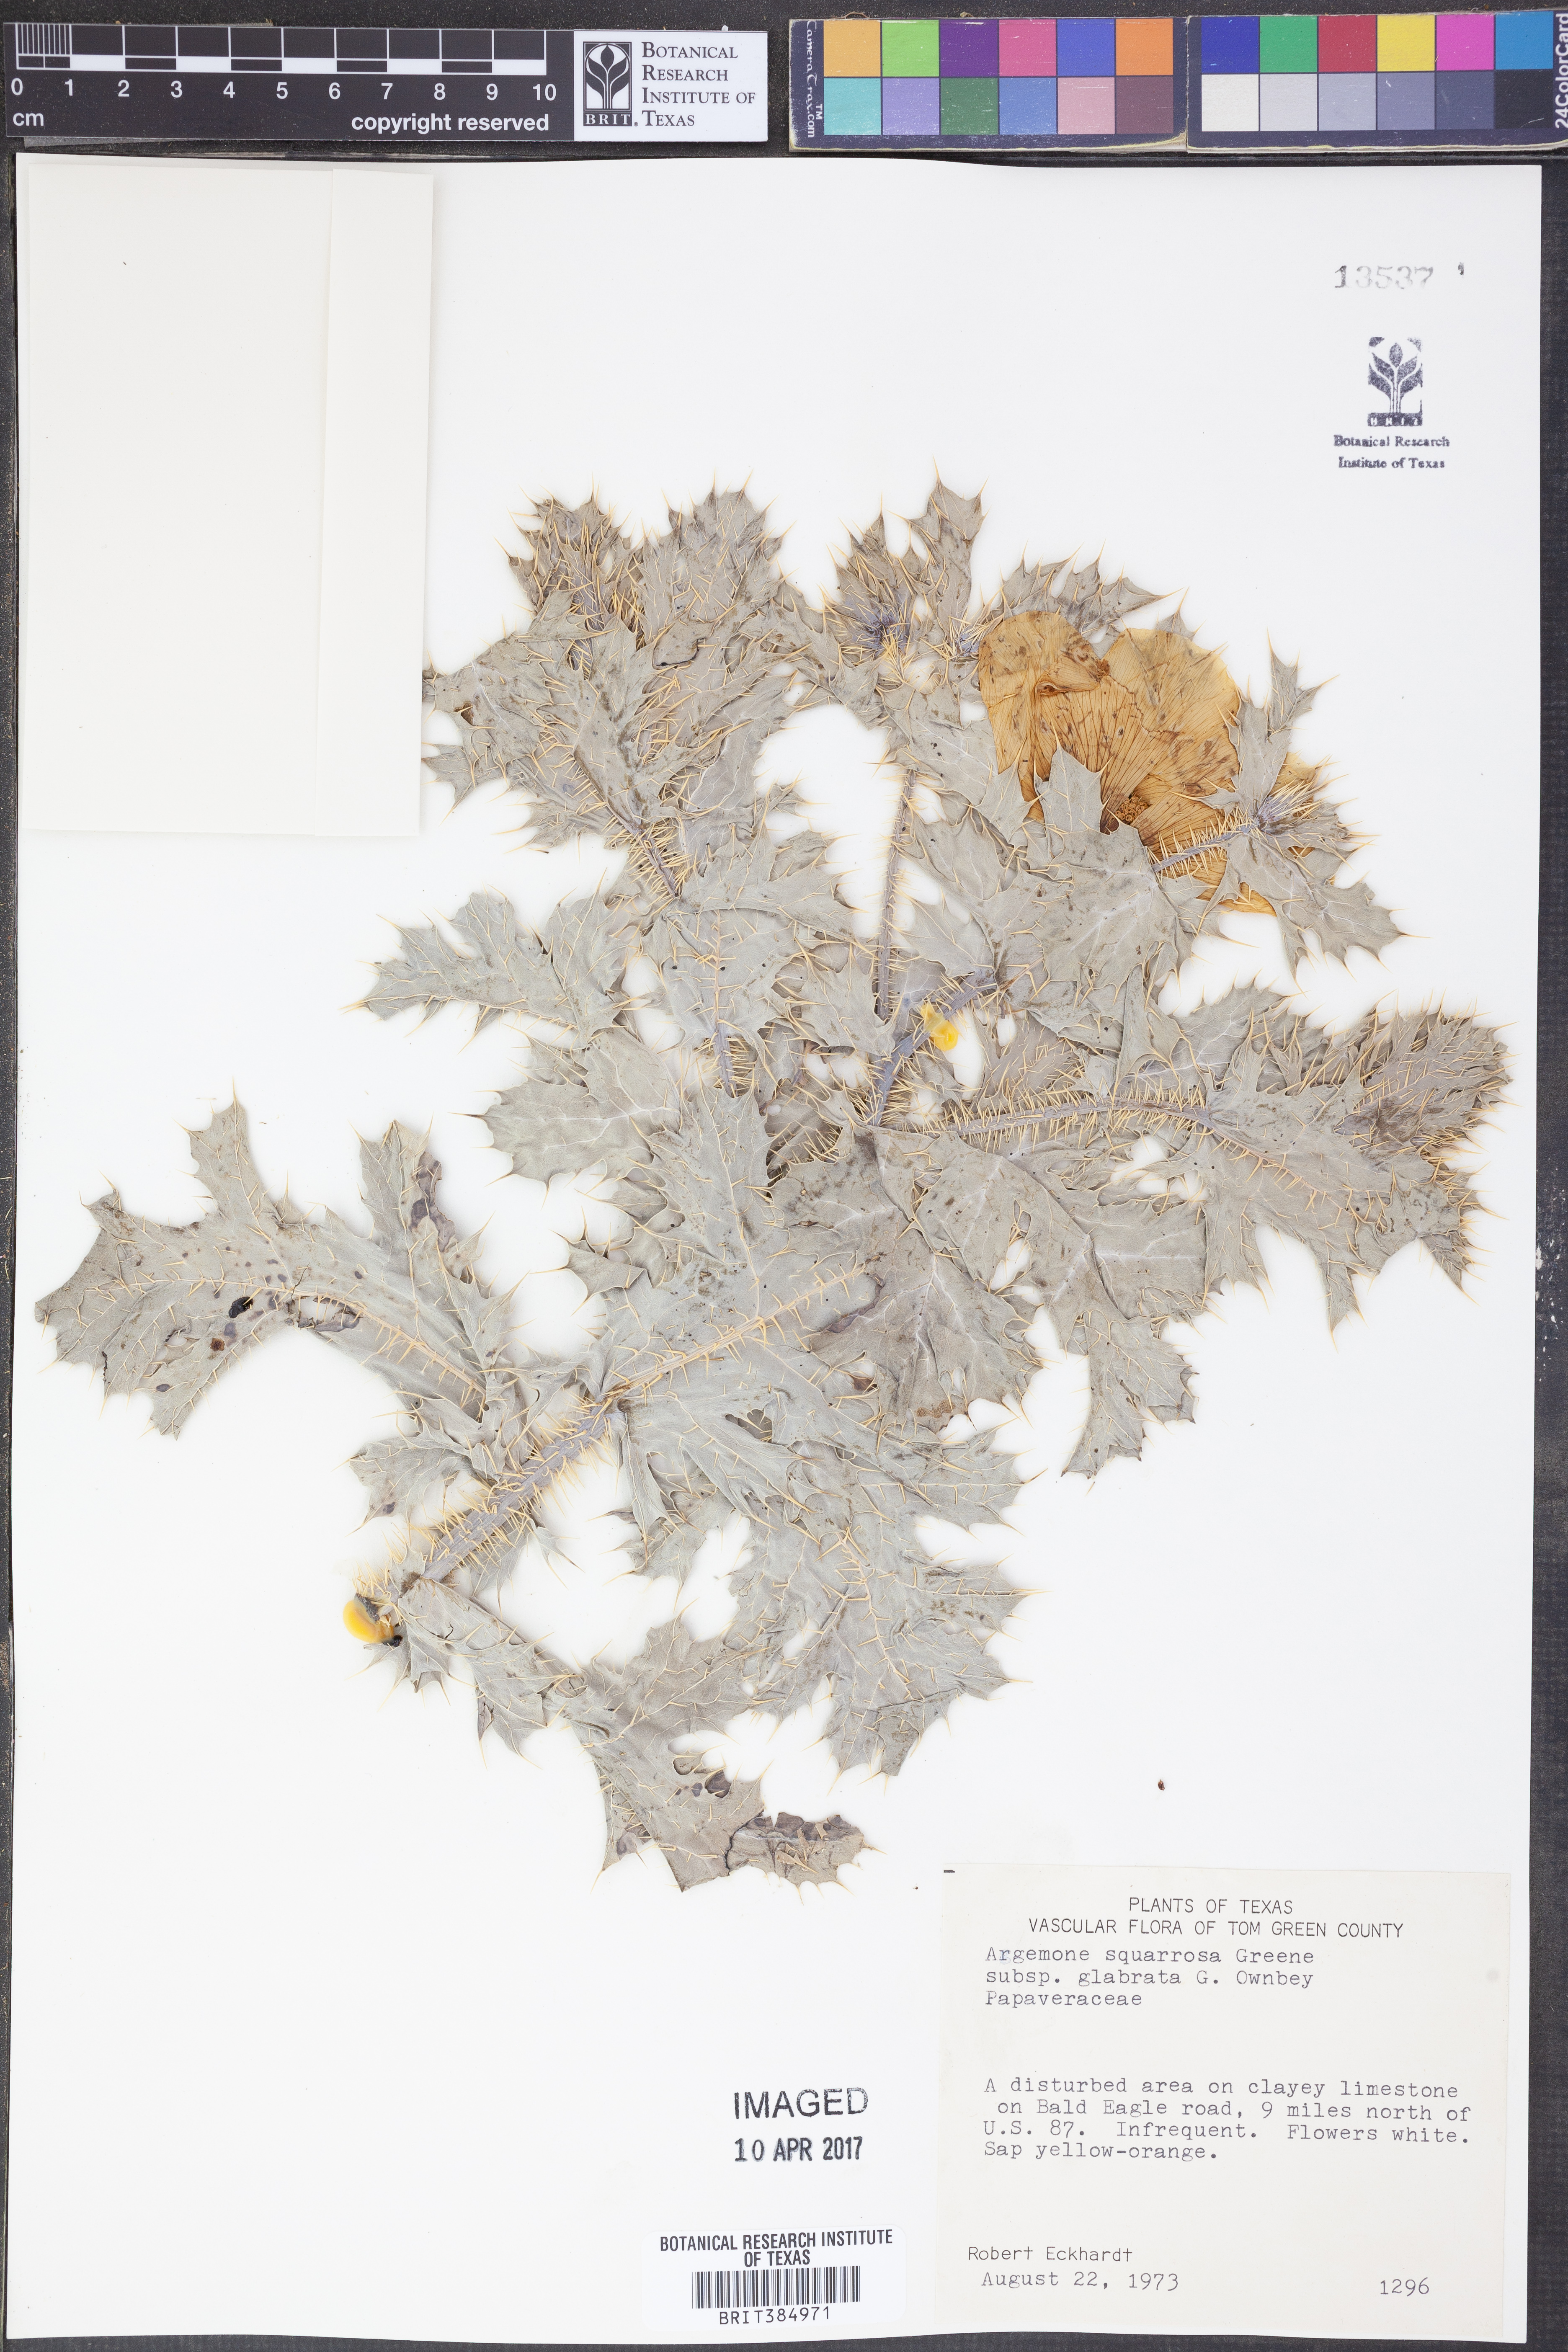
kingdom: Plantae
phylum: Tracheophyta
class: Magnoliopsida
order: Ranunculales
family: Papaveraceae
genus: Argemone
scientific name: Argemone squarrosa
